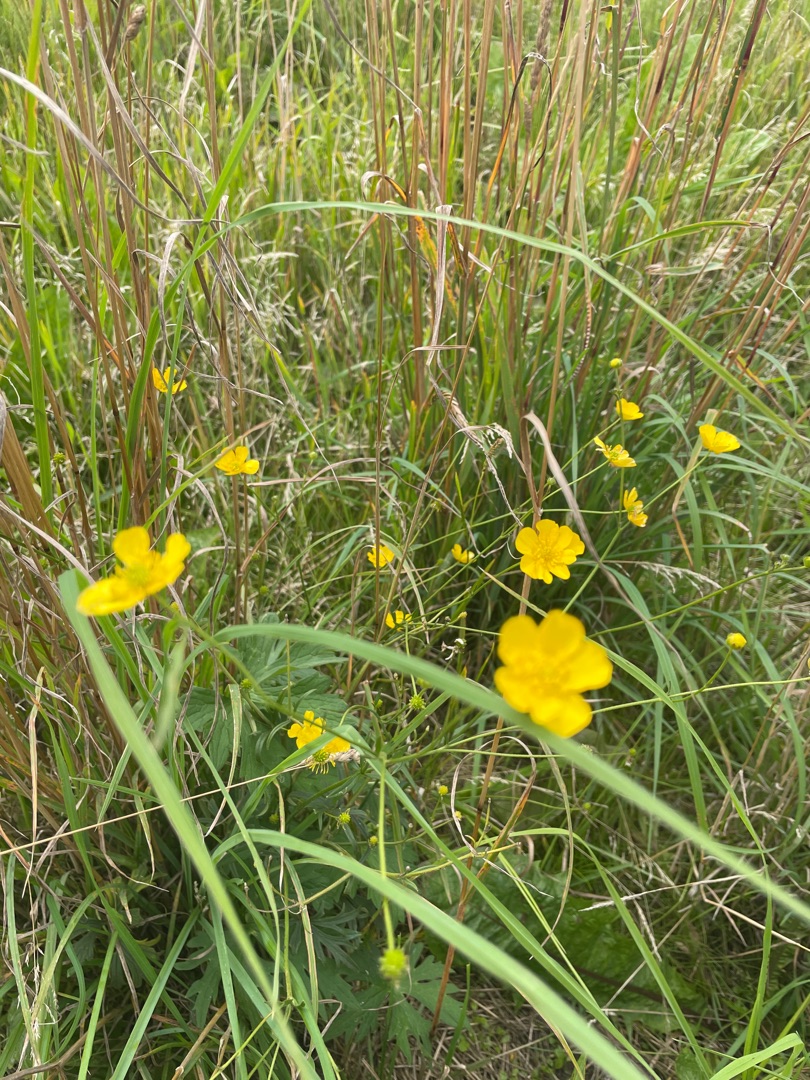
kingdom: Plantae
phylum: Tracheophyta
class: Magnoliopsida
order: Ranunculales
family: Ranunculaceae
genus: Ranunculus
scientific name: Ranunculus acris
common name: Bidende ranunkel
